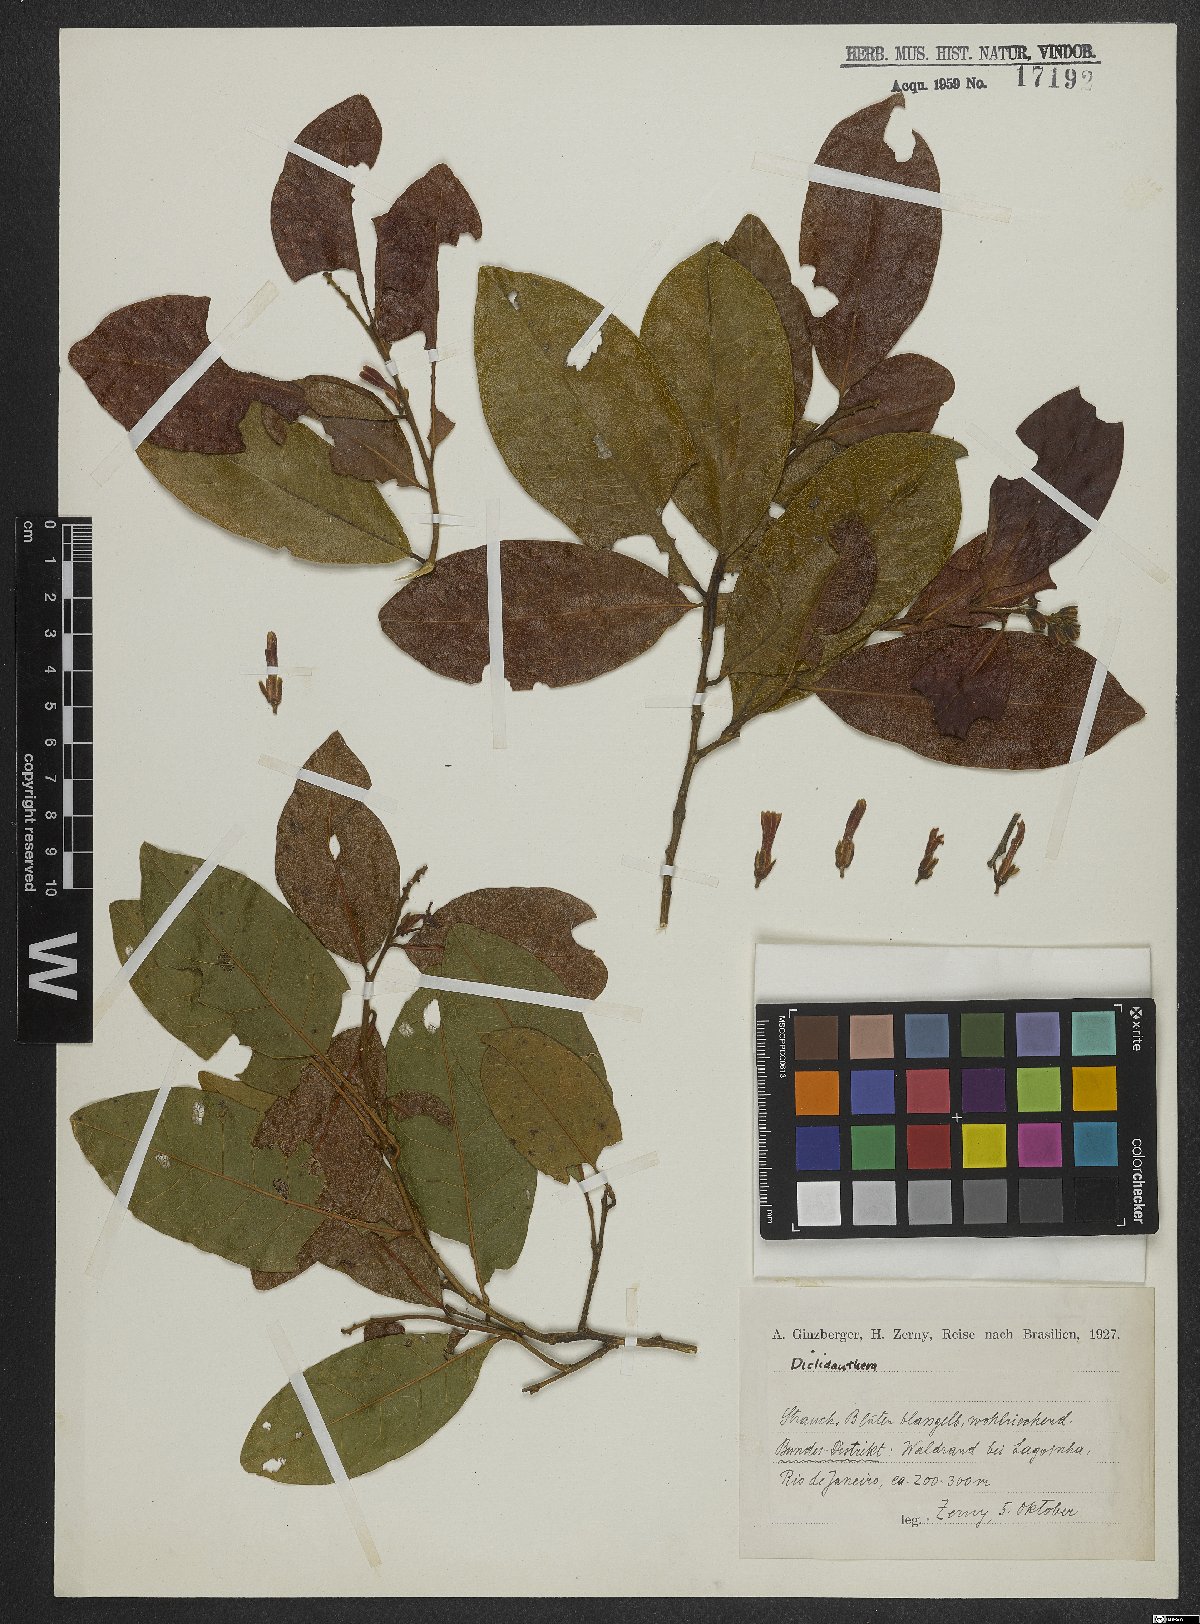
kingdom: Plantae
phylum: Tracheophyta
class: Magnoliopsida
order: Fabales
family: Polygalaceae
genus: Diclidanthera
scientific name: Diclidanthera
